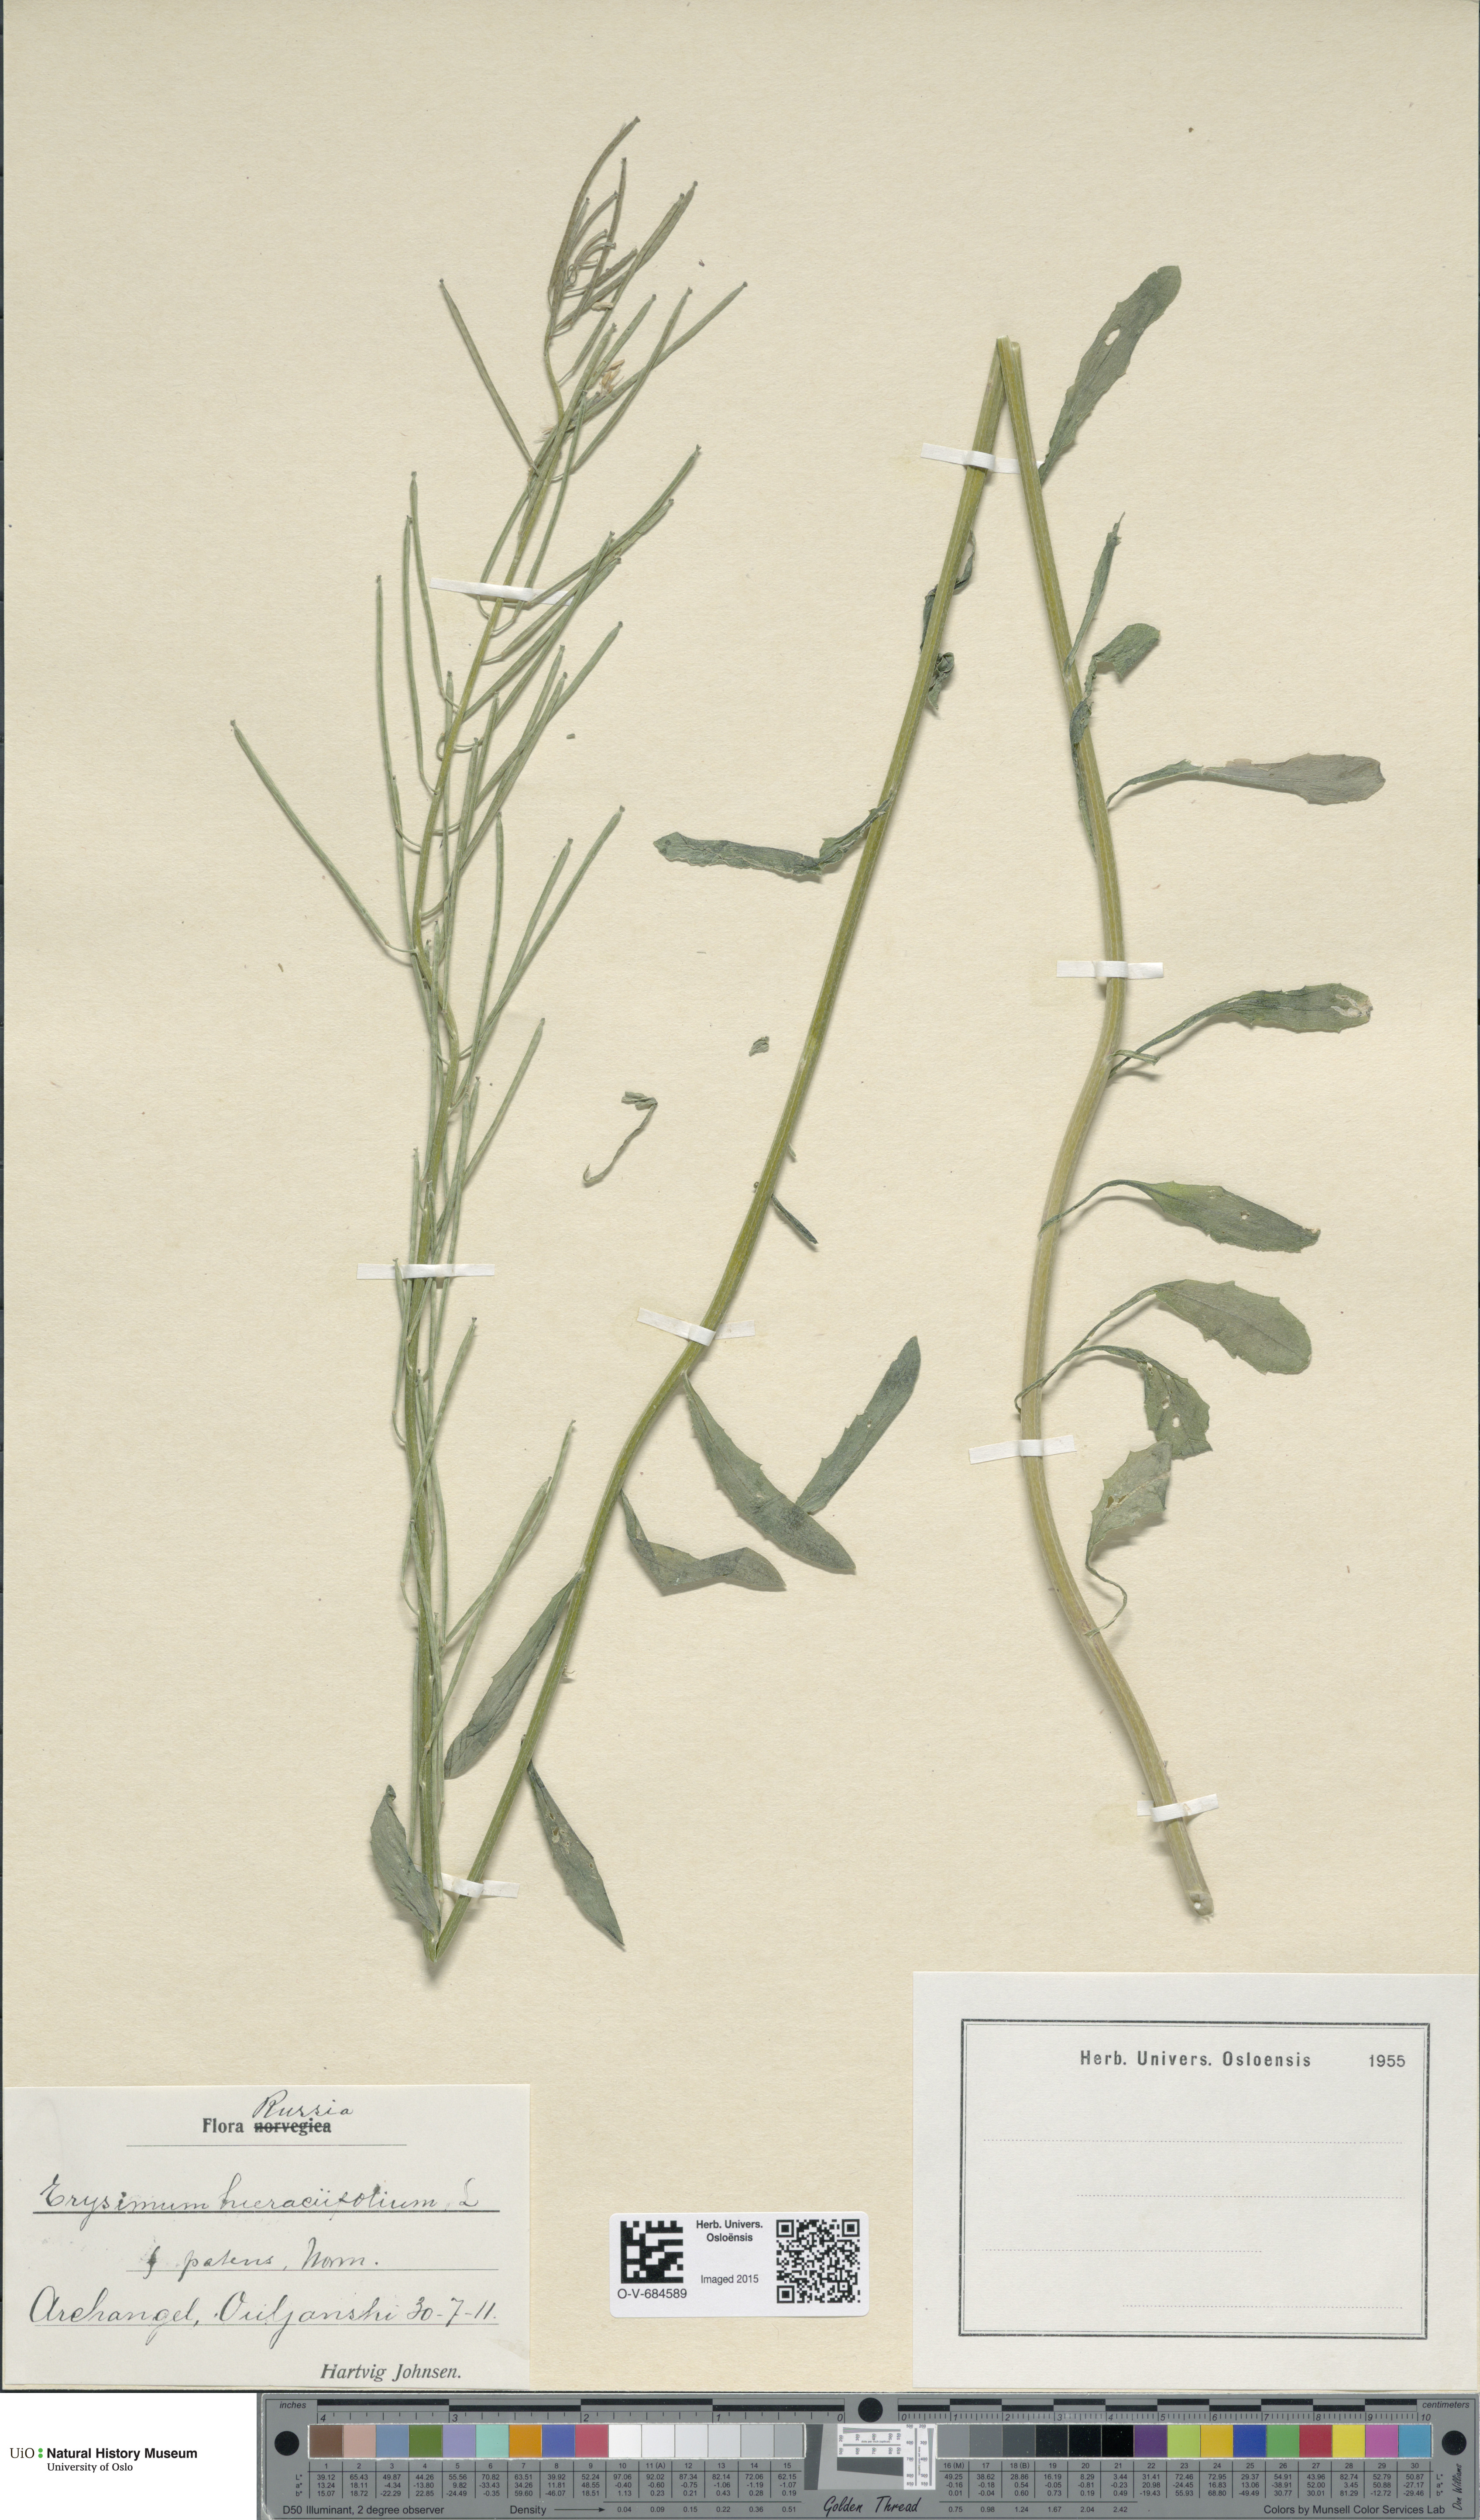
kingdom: Plantae
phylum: Tracheophyta
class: Magnoliopsida
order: Brassicales
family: Brassicaceae
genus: Erysimum
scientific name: Erysimum hieraciifolium
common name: European wallflower
